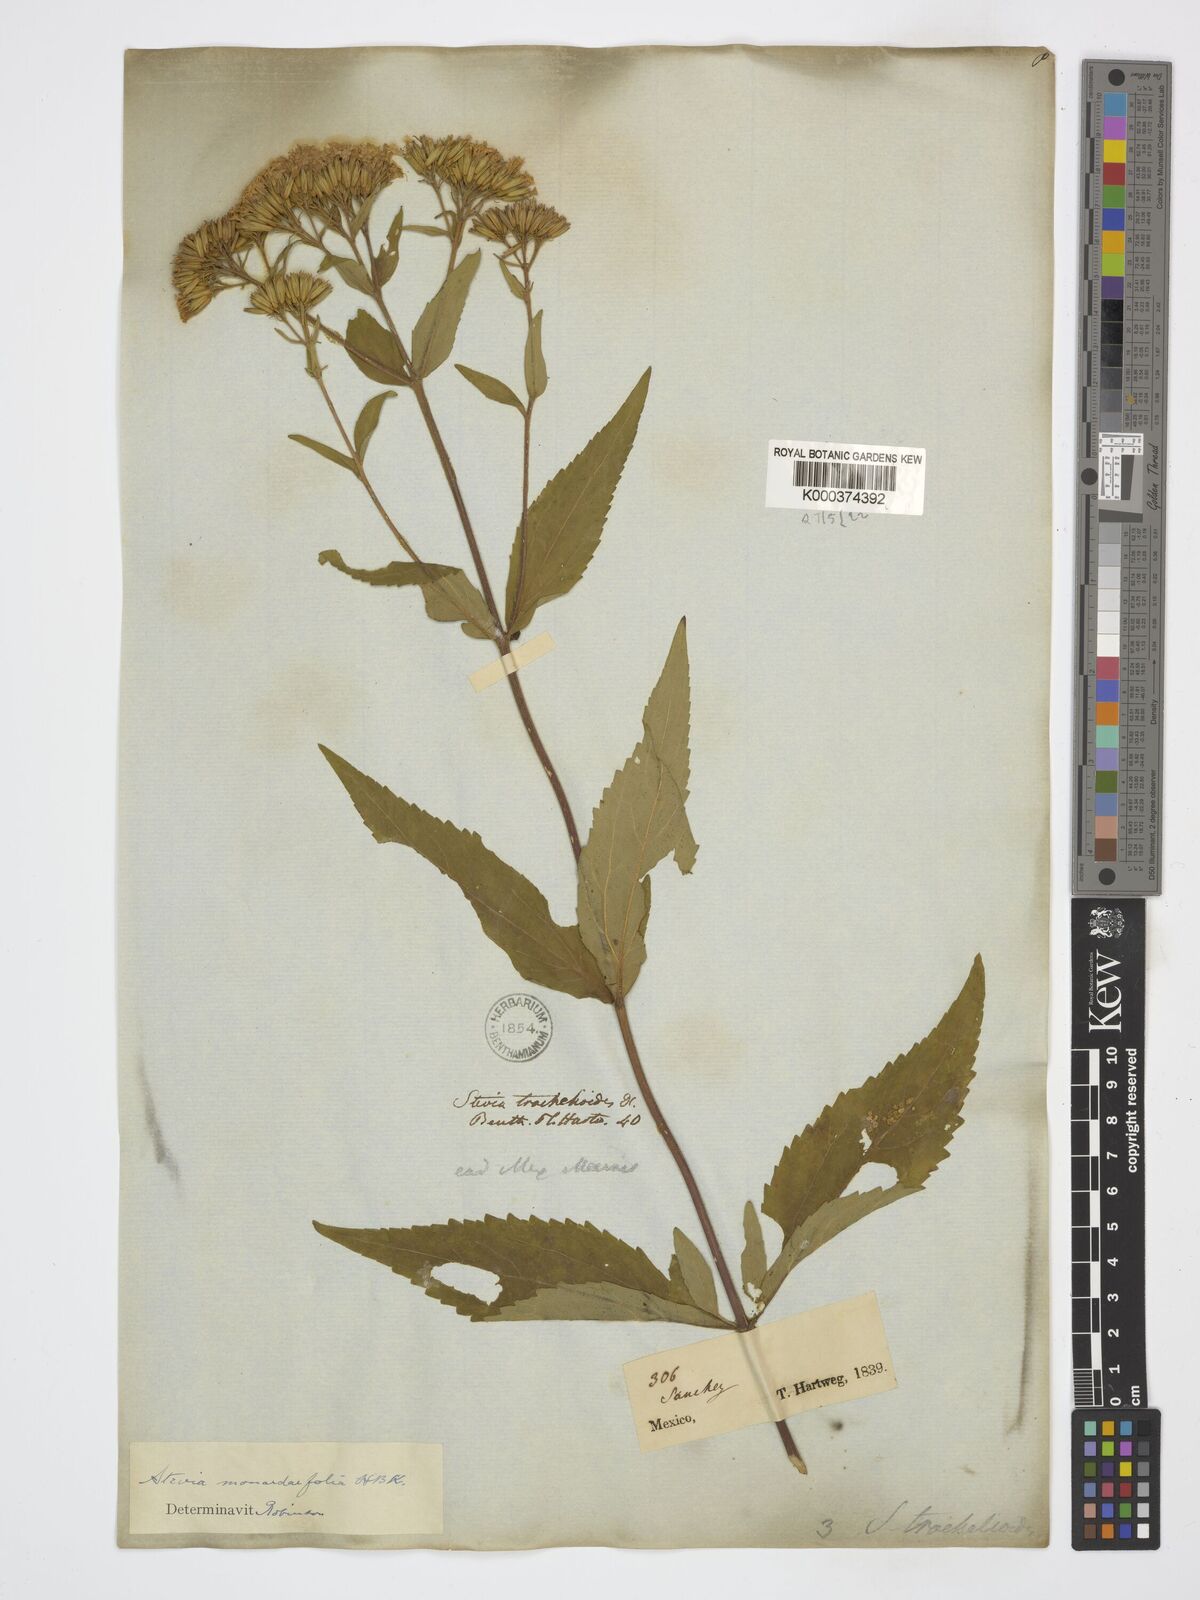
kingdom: Plantae
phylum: Tracheophyta
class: Magnoliopsida
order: Asterales
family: Asteraceae
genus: Stevia
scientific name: Stevia monardifolia
